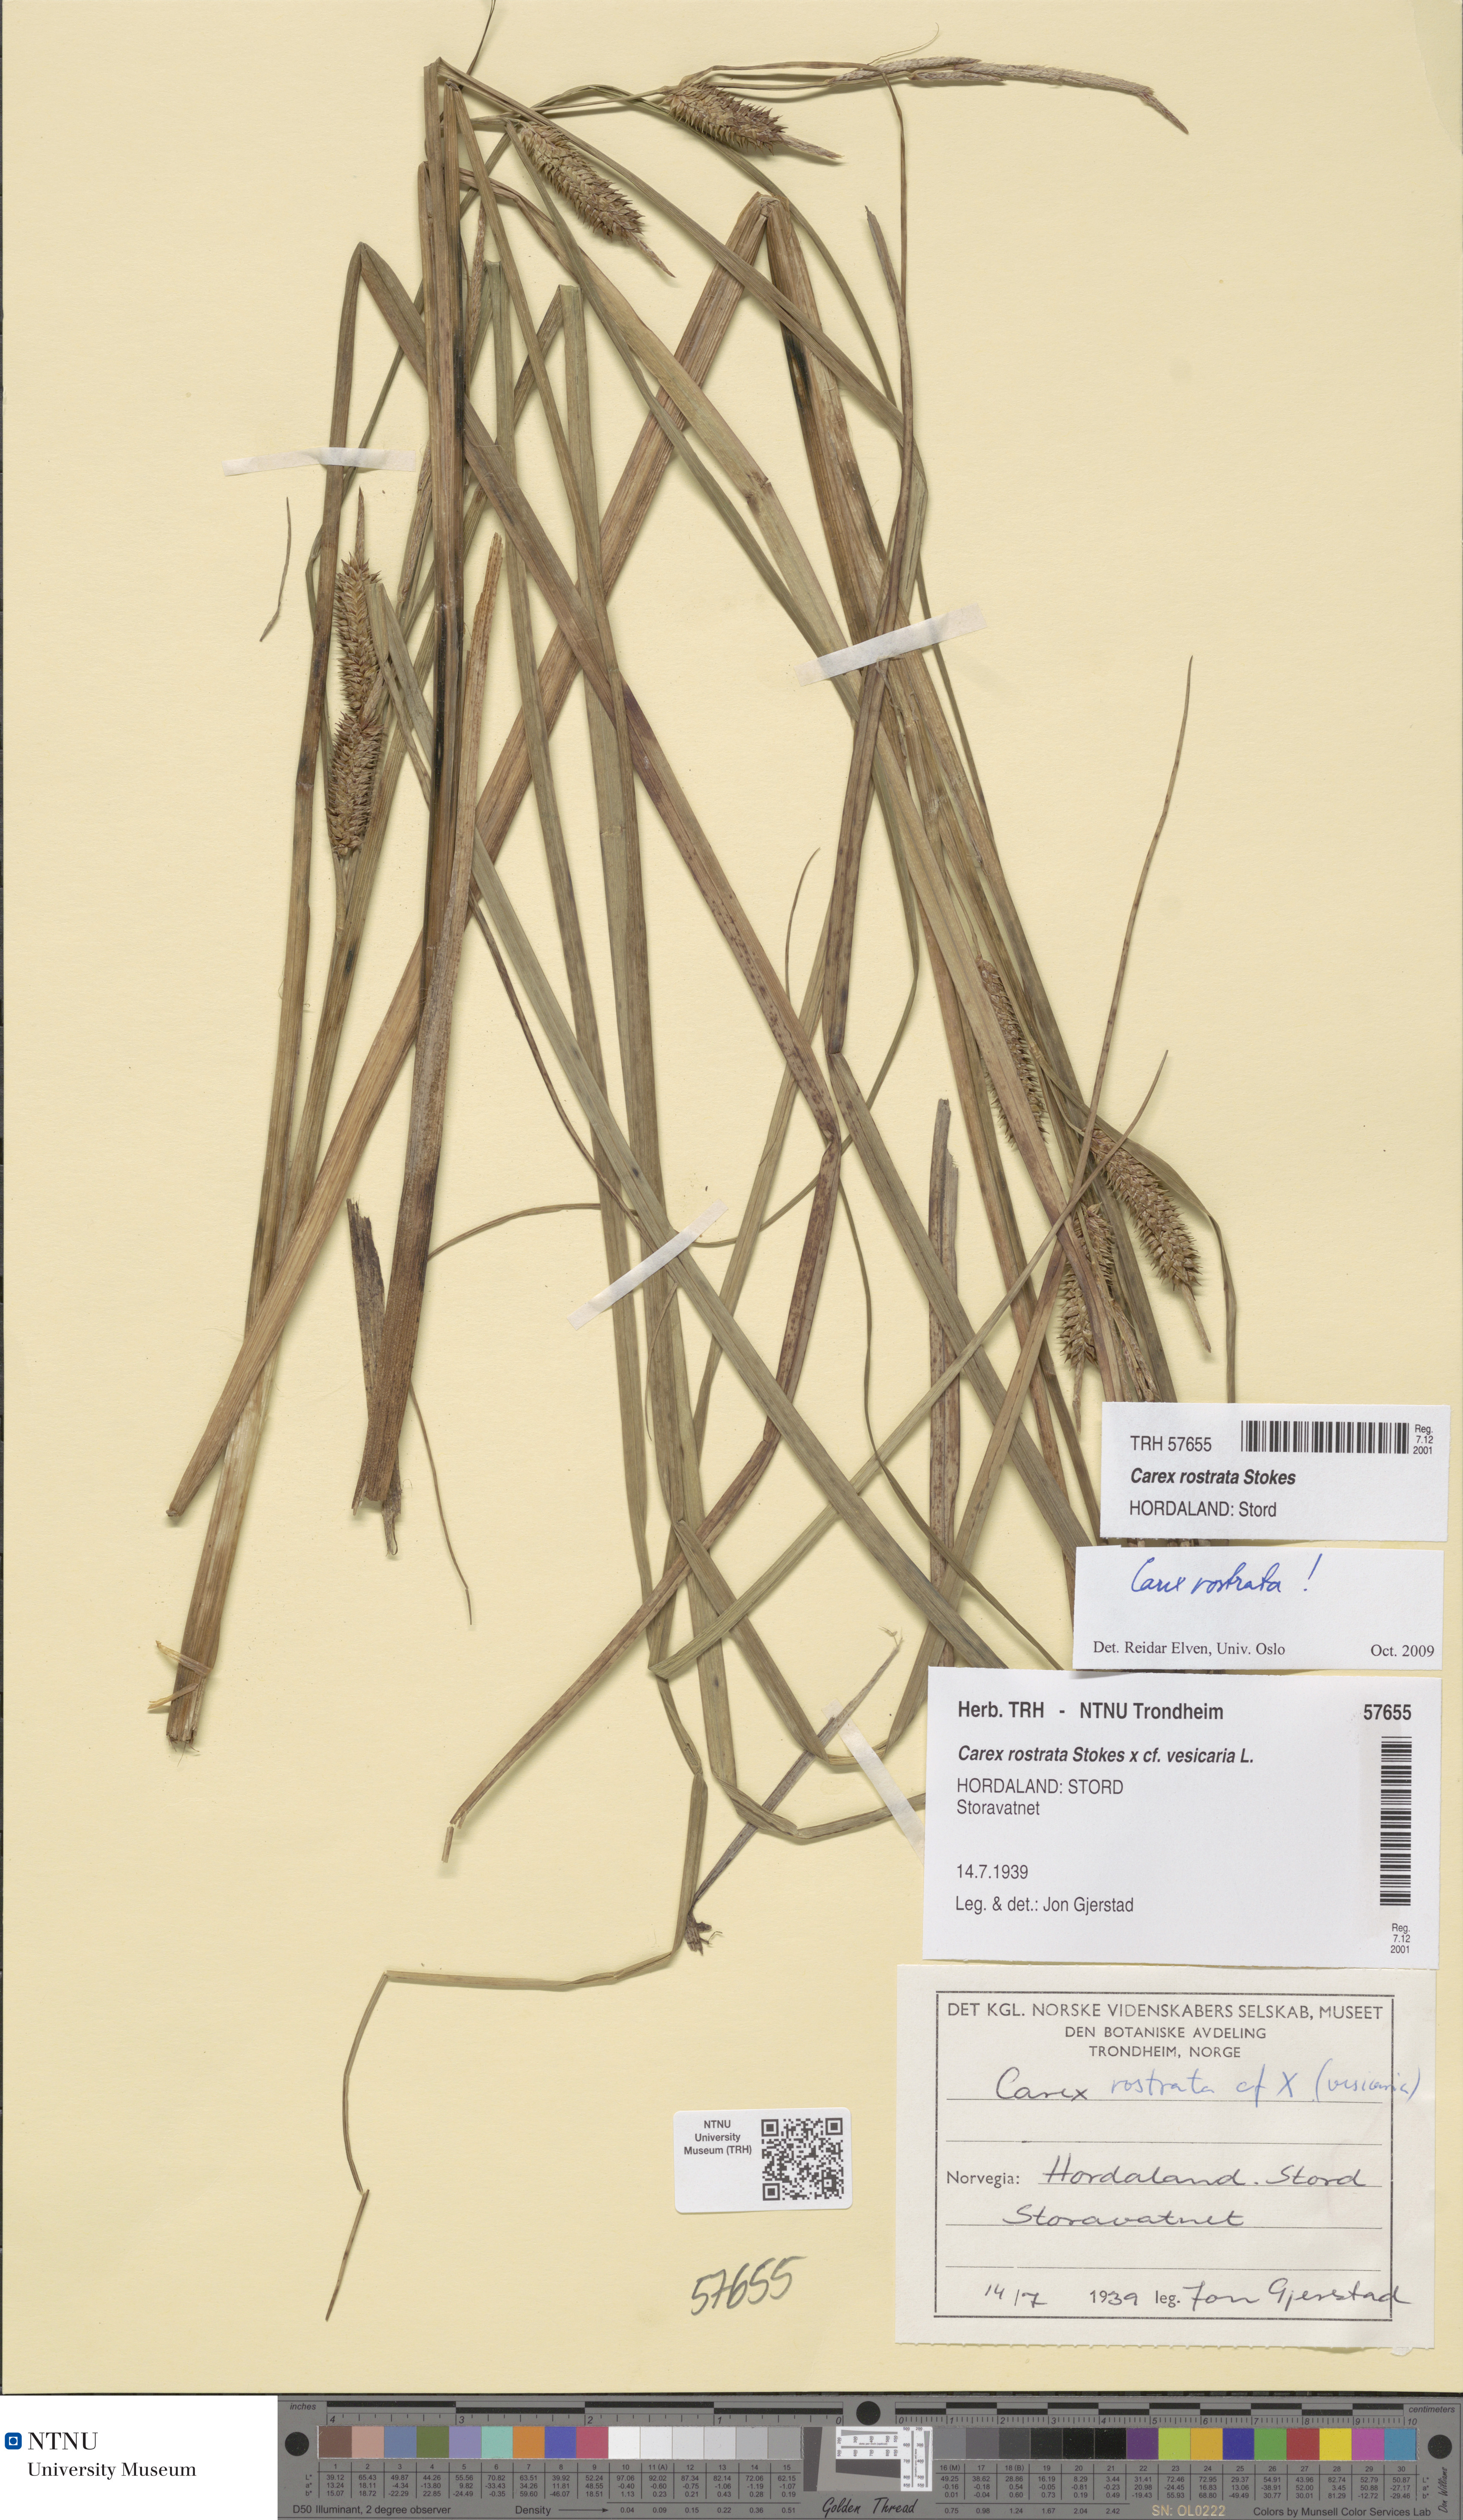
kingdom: Plantae
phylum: Tracheophyta
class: Liliopsida
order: Poales
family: Cyperaceae
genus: Carex
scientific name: Carex rostrata
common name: Bottle sedge
